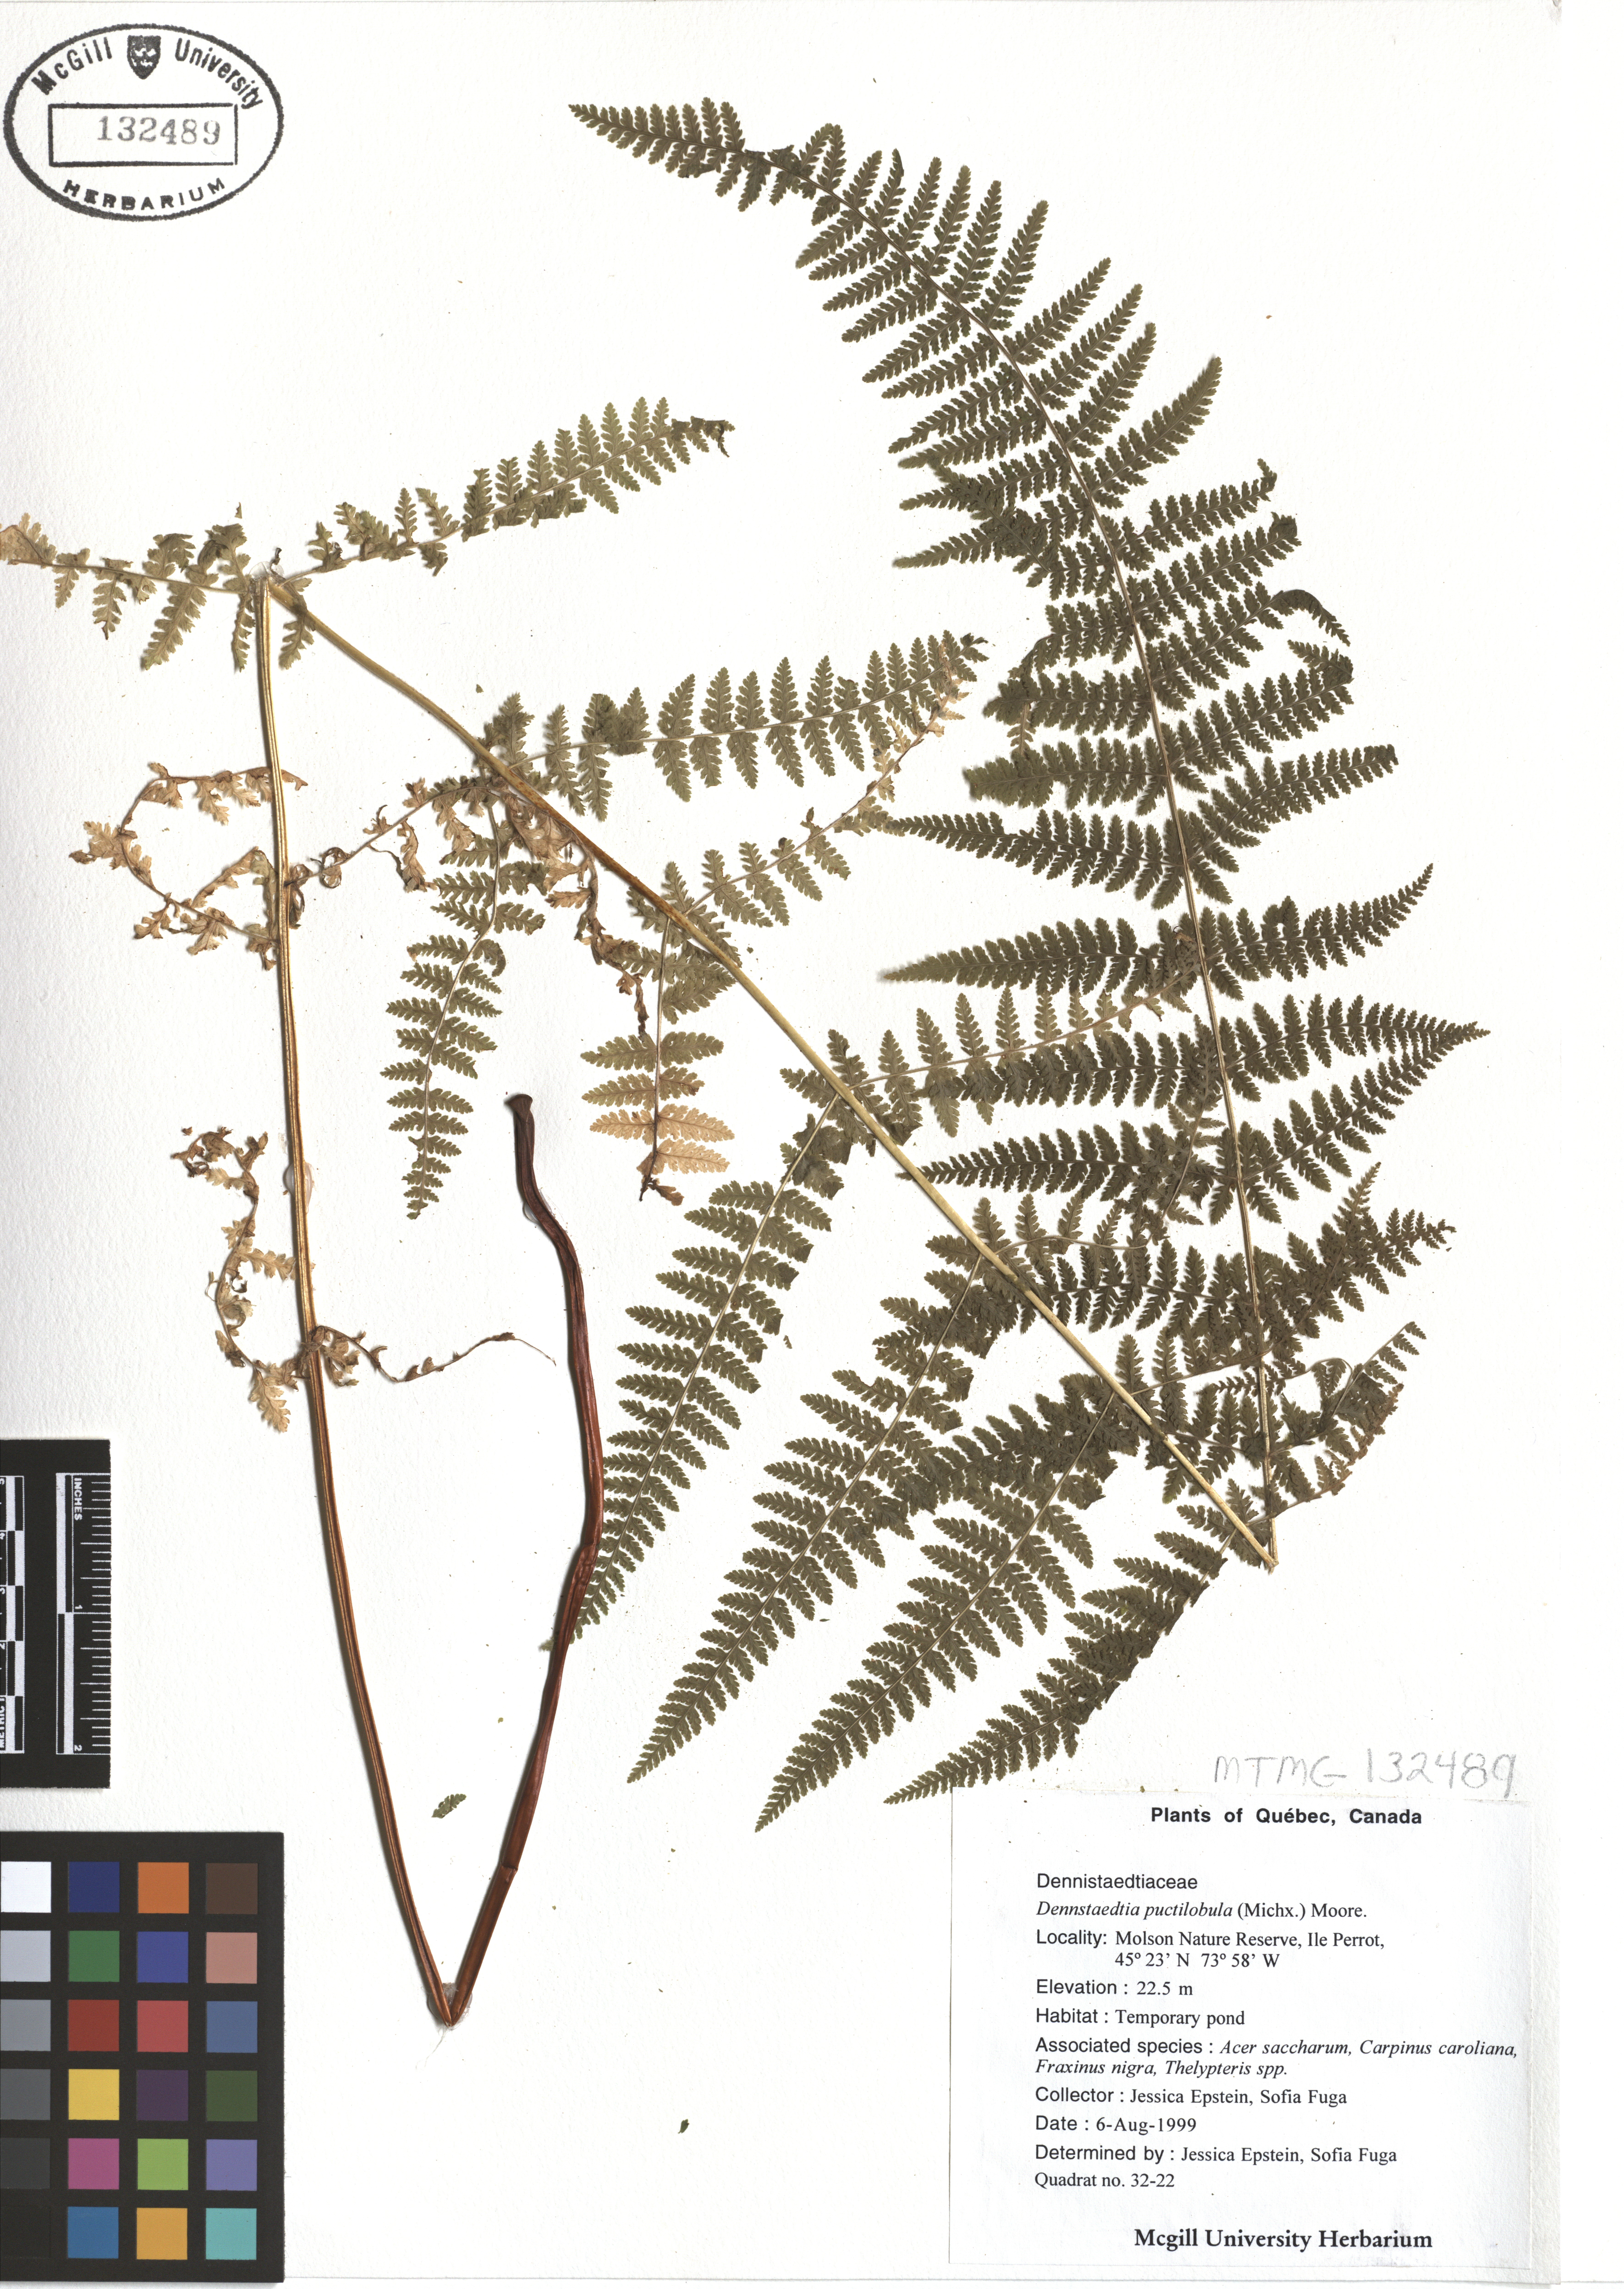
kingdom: Plantae
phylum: Tracheophyta
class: Polypodiopsida
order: Polypodiales
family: Dennstaedtiaceae
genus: Sitobolium
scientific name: Sitobolium punctilobum
